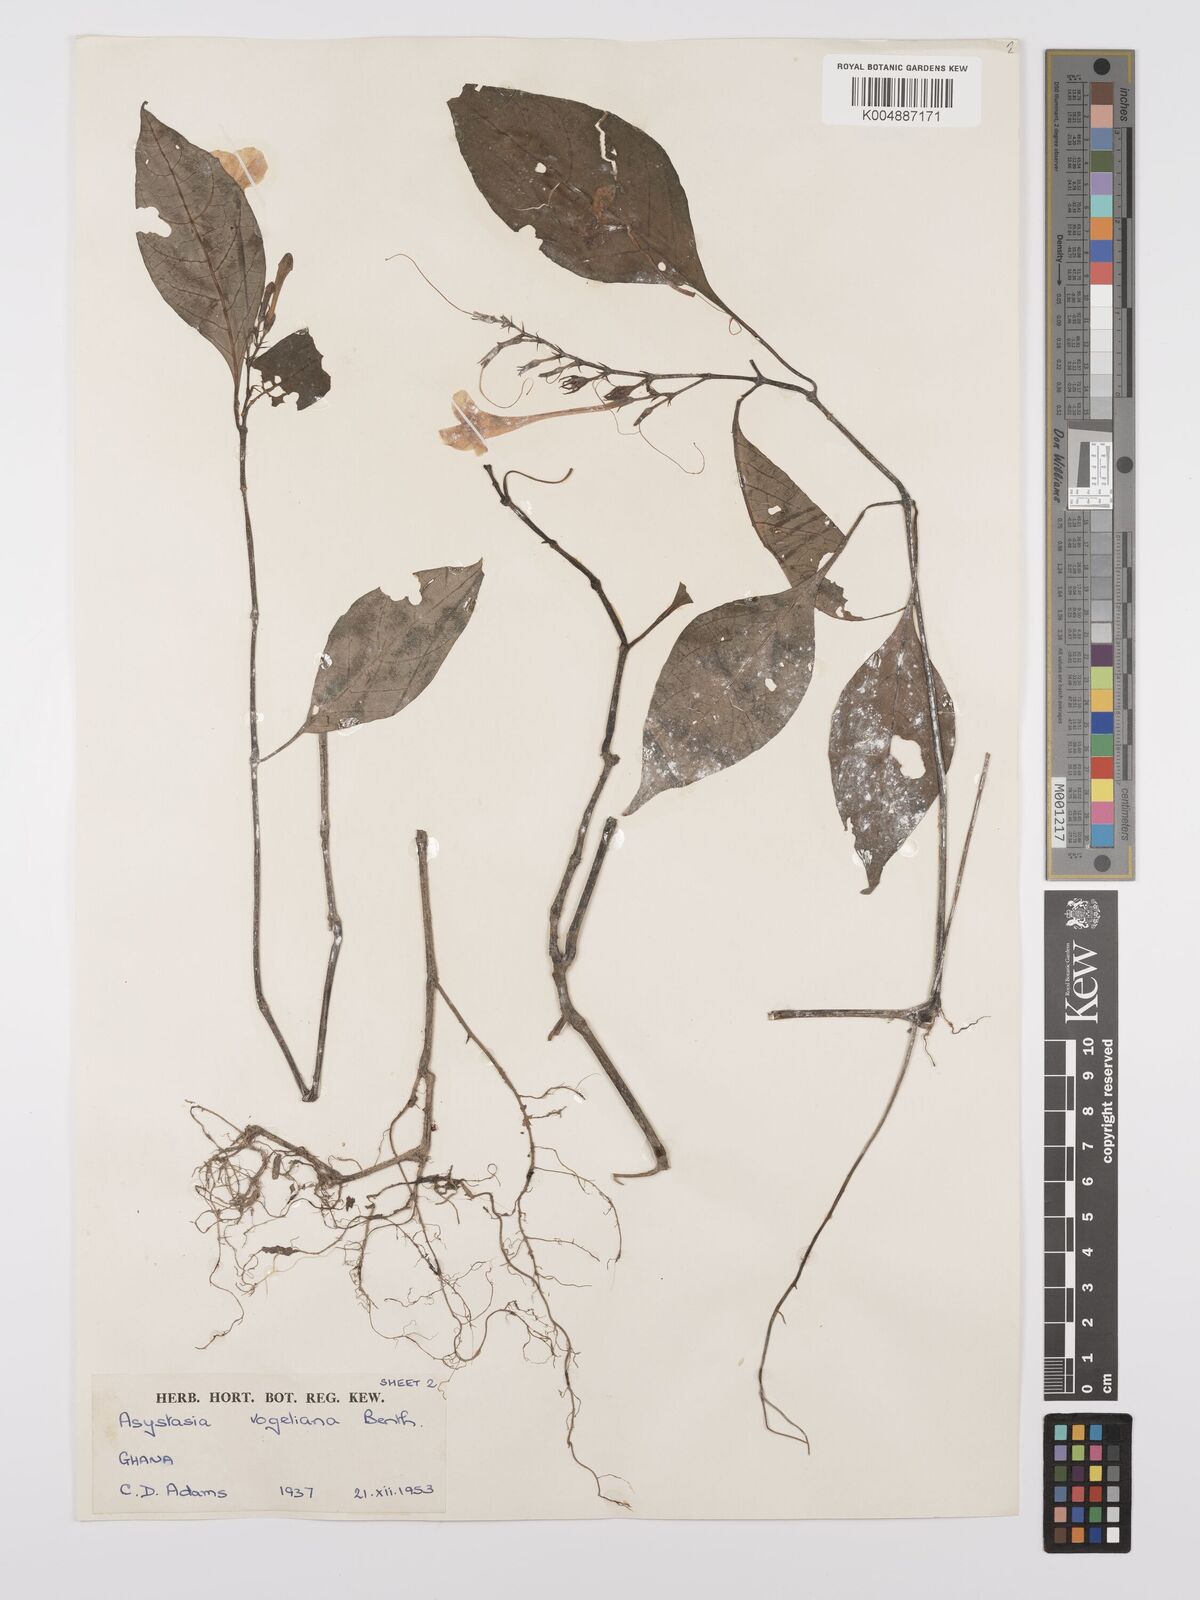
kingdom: Plantae
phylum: Tracheophyta
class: Magnoliopsida
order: Lamiales
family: Acanthaceae
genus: Asystasia
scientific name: Asystasia vogeliana
